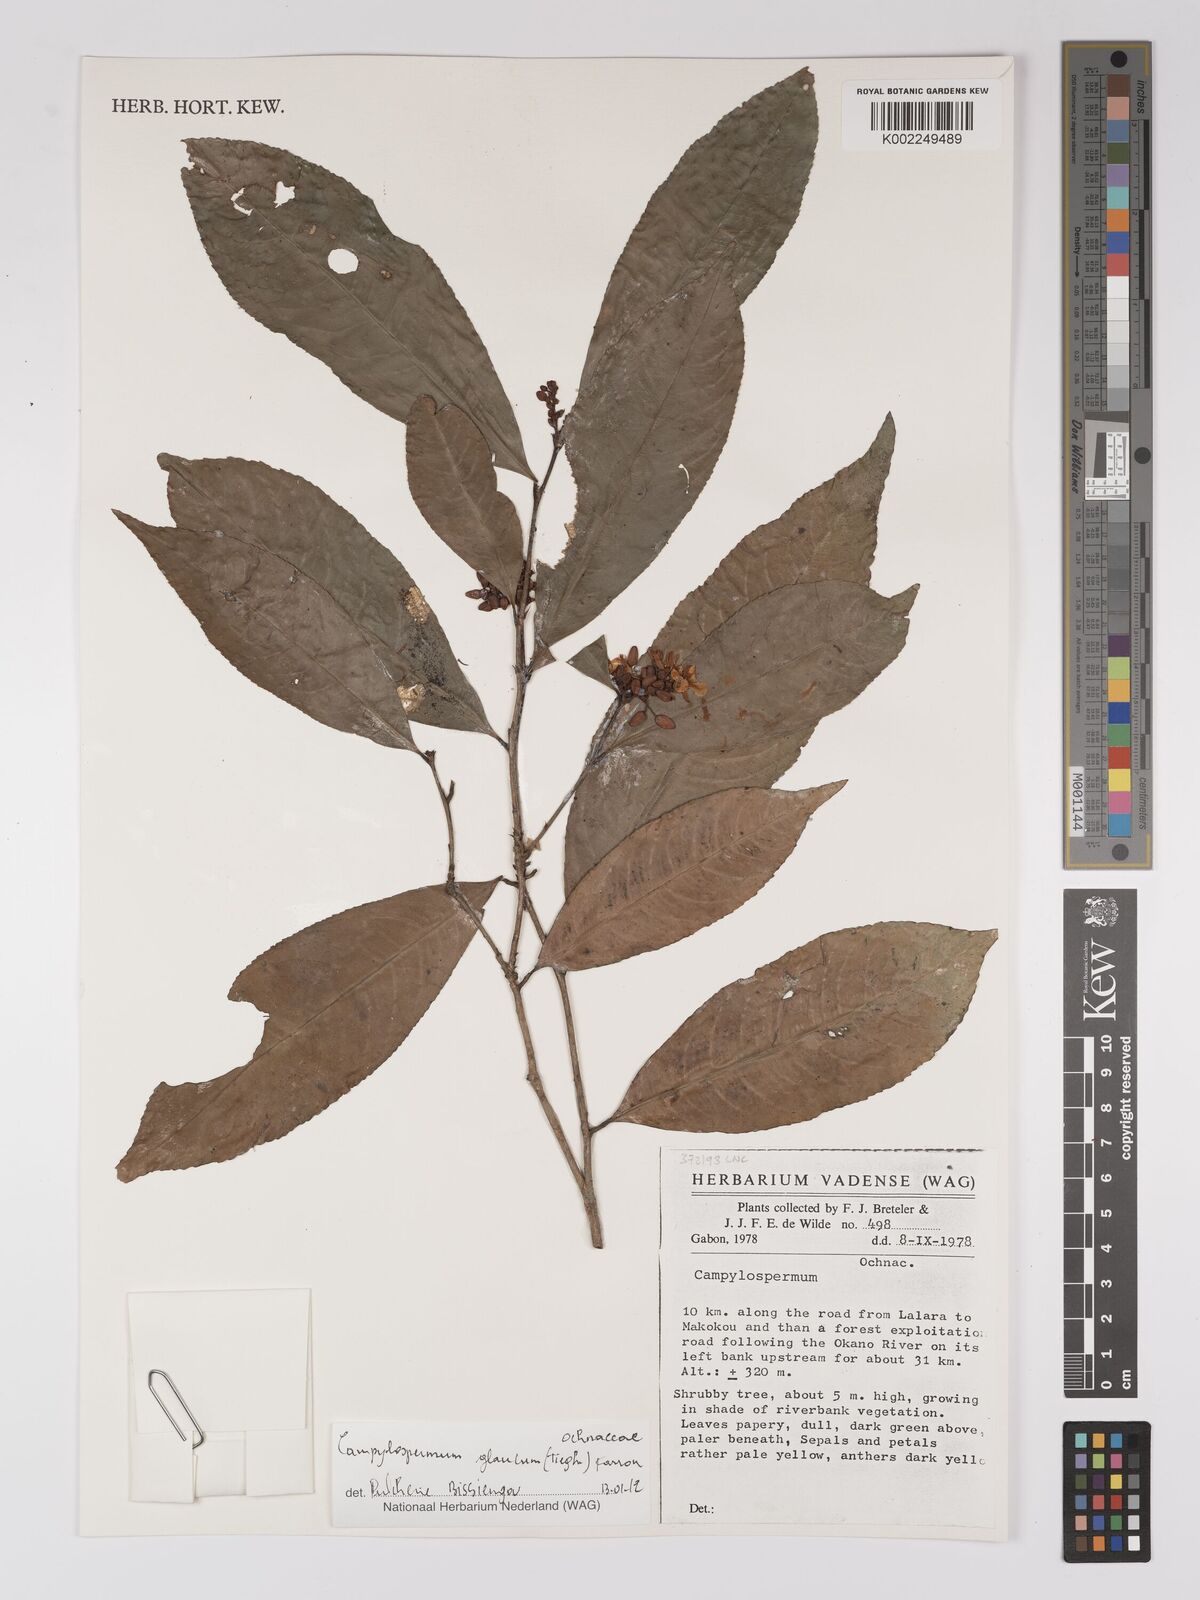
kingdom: Plantae
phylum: Tracheophyta
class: Magnoliopsida
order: Malpighiales
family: Ochnaceae
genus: Campylospermum
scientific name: Campylospermum glaucum
